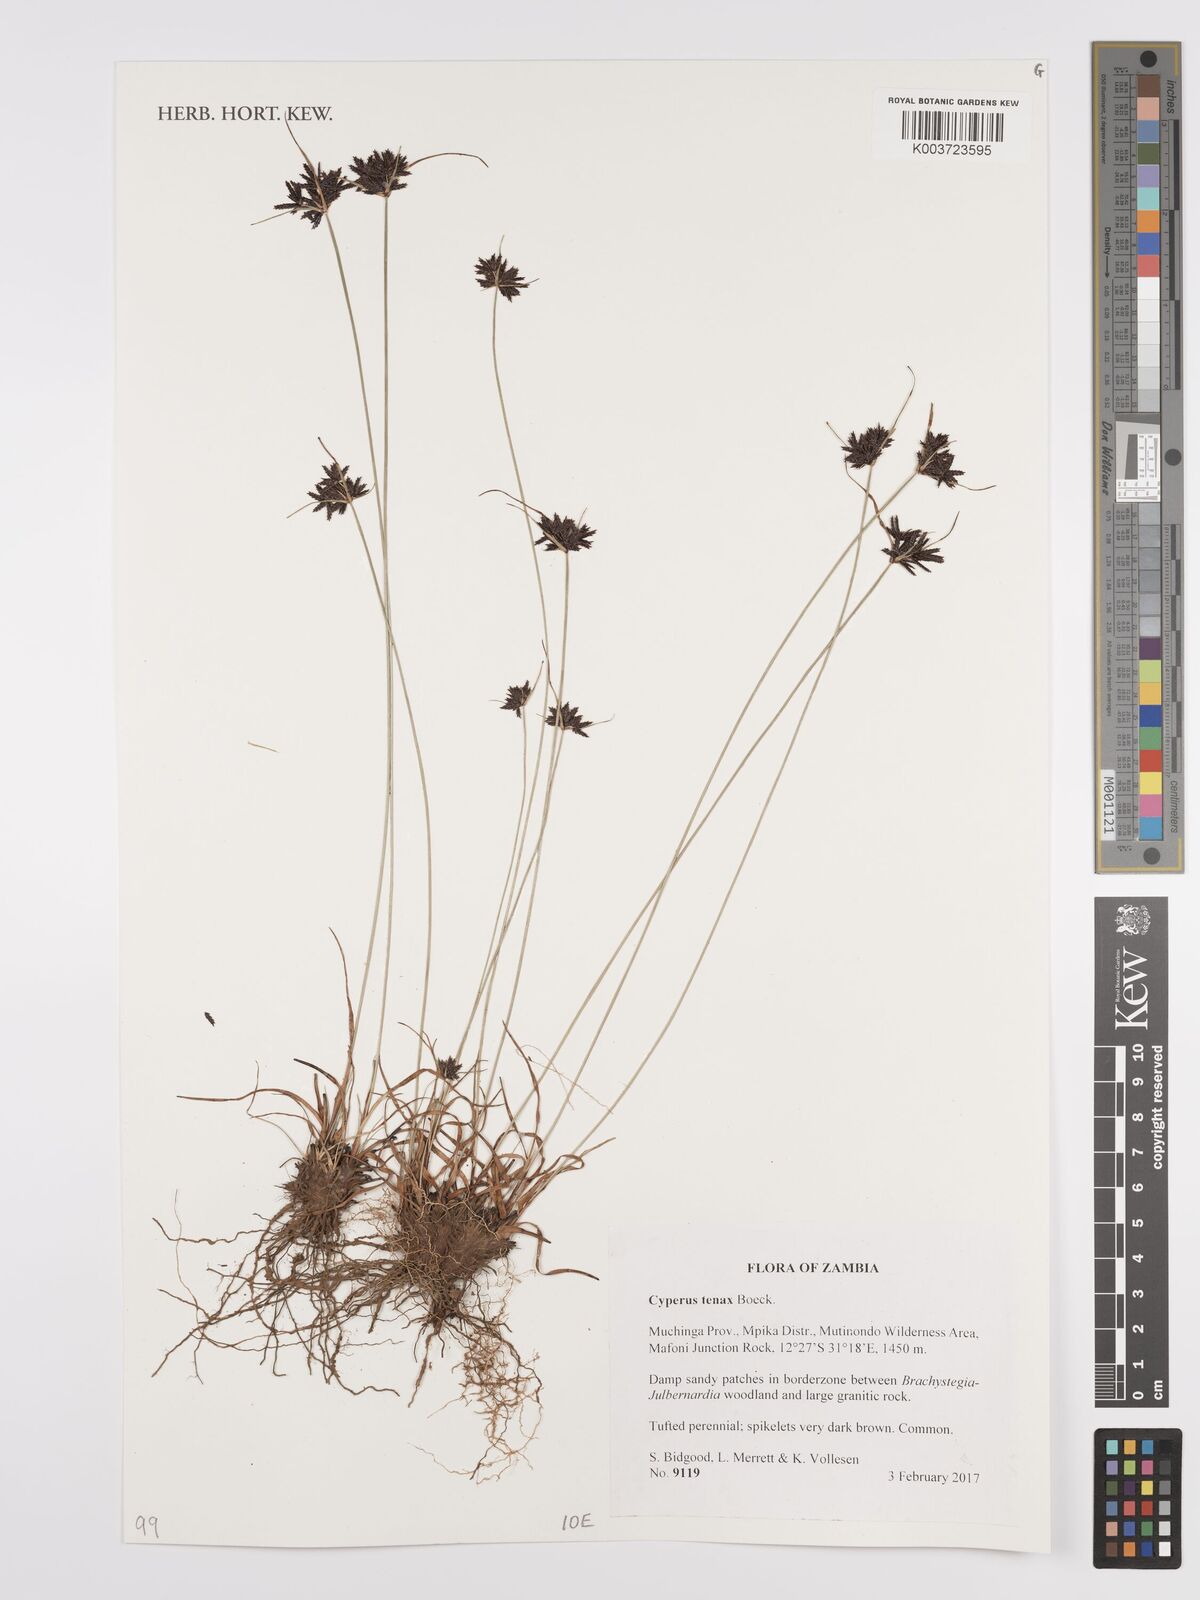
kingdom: Plantae
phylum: Tracheophyta
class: Liliopsida
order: Poales
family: Cyperaceae
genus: Cyperus
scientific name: Cyperus tenax
